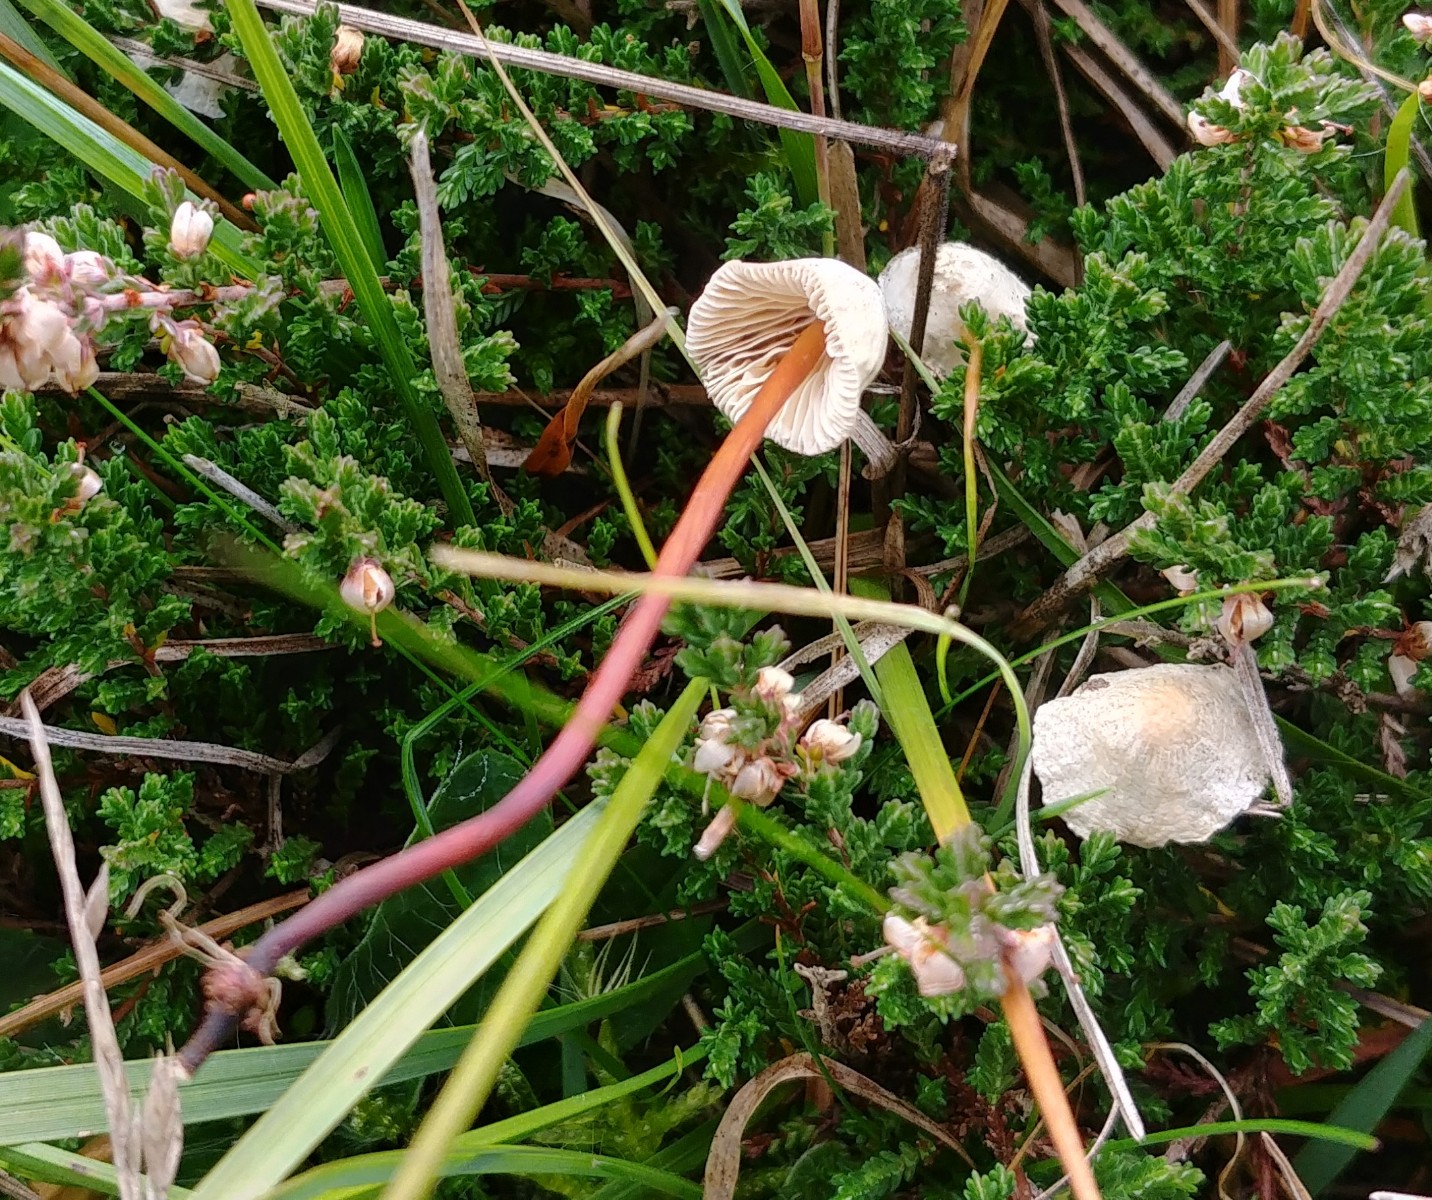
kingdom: Fungi
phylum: Basidiomycota
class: Agaricomycetes
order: Agaricales
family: Omphalotaceae
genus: Mycetinis
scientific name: Mycetinis scorodonius
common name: lille løghat
